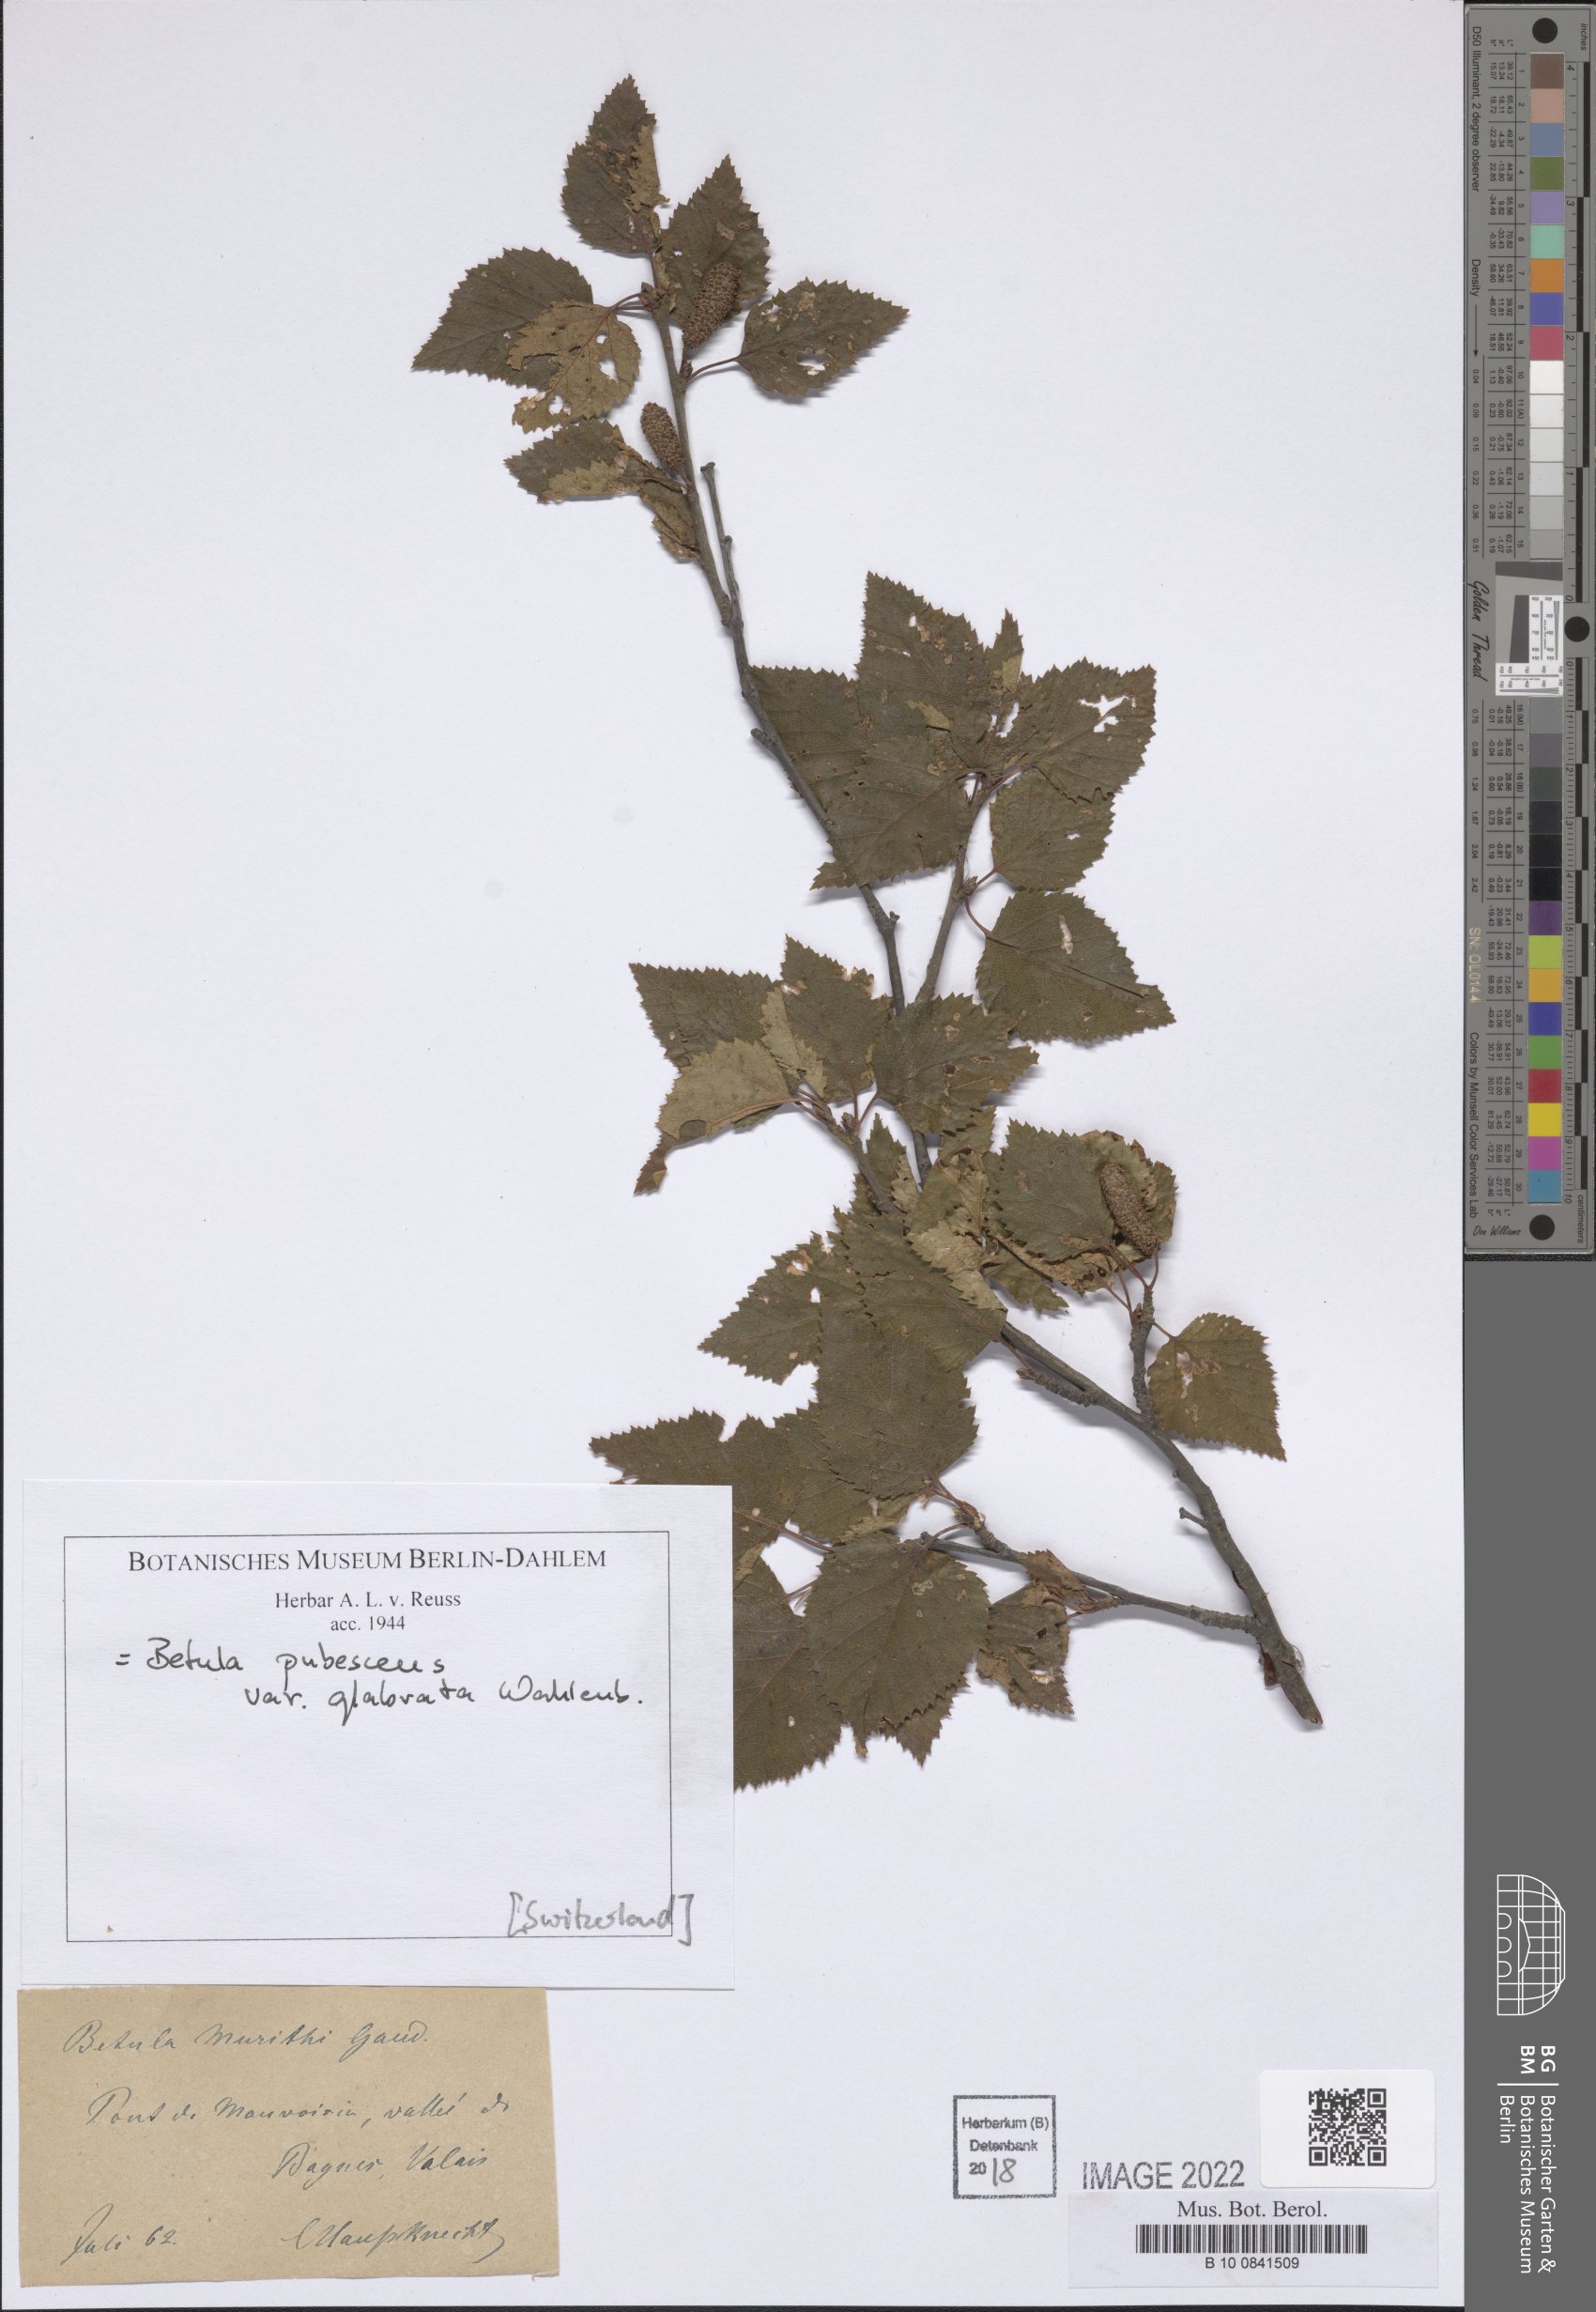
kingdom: Plantae
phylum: Tracheophyta
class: Magnoliopsida
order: Fagales
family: Betulaceae
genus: Betula
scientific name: Betula pubescens
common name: Downy birch
